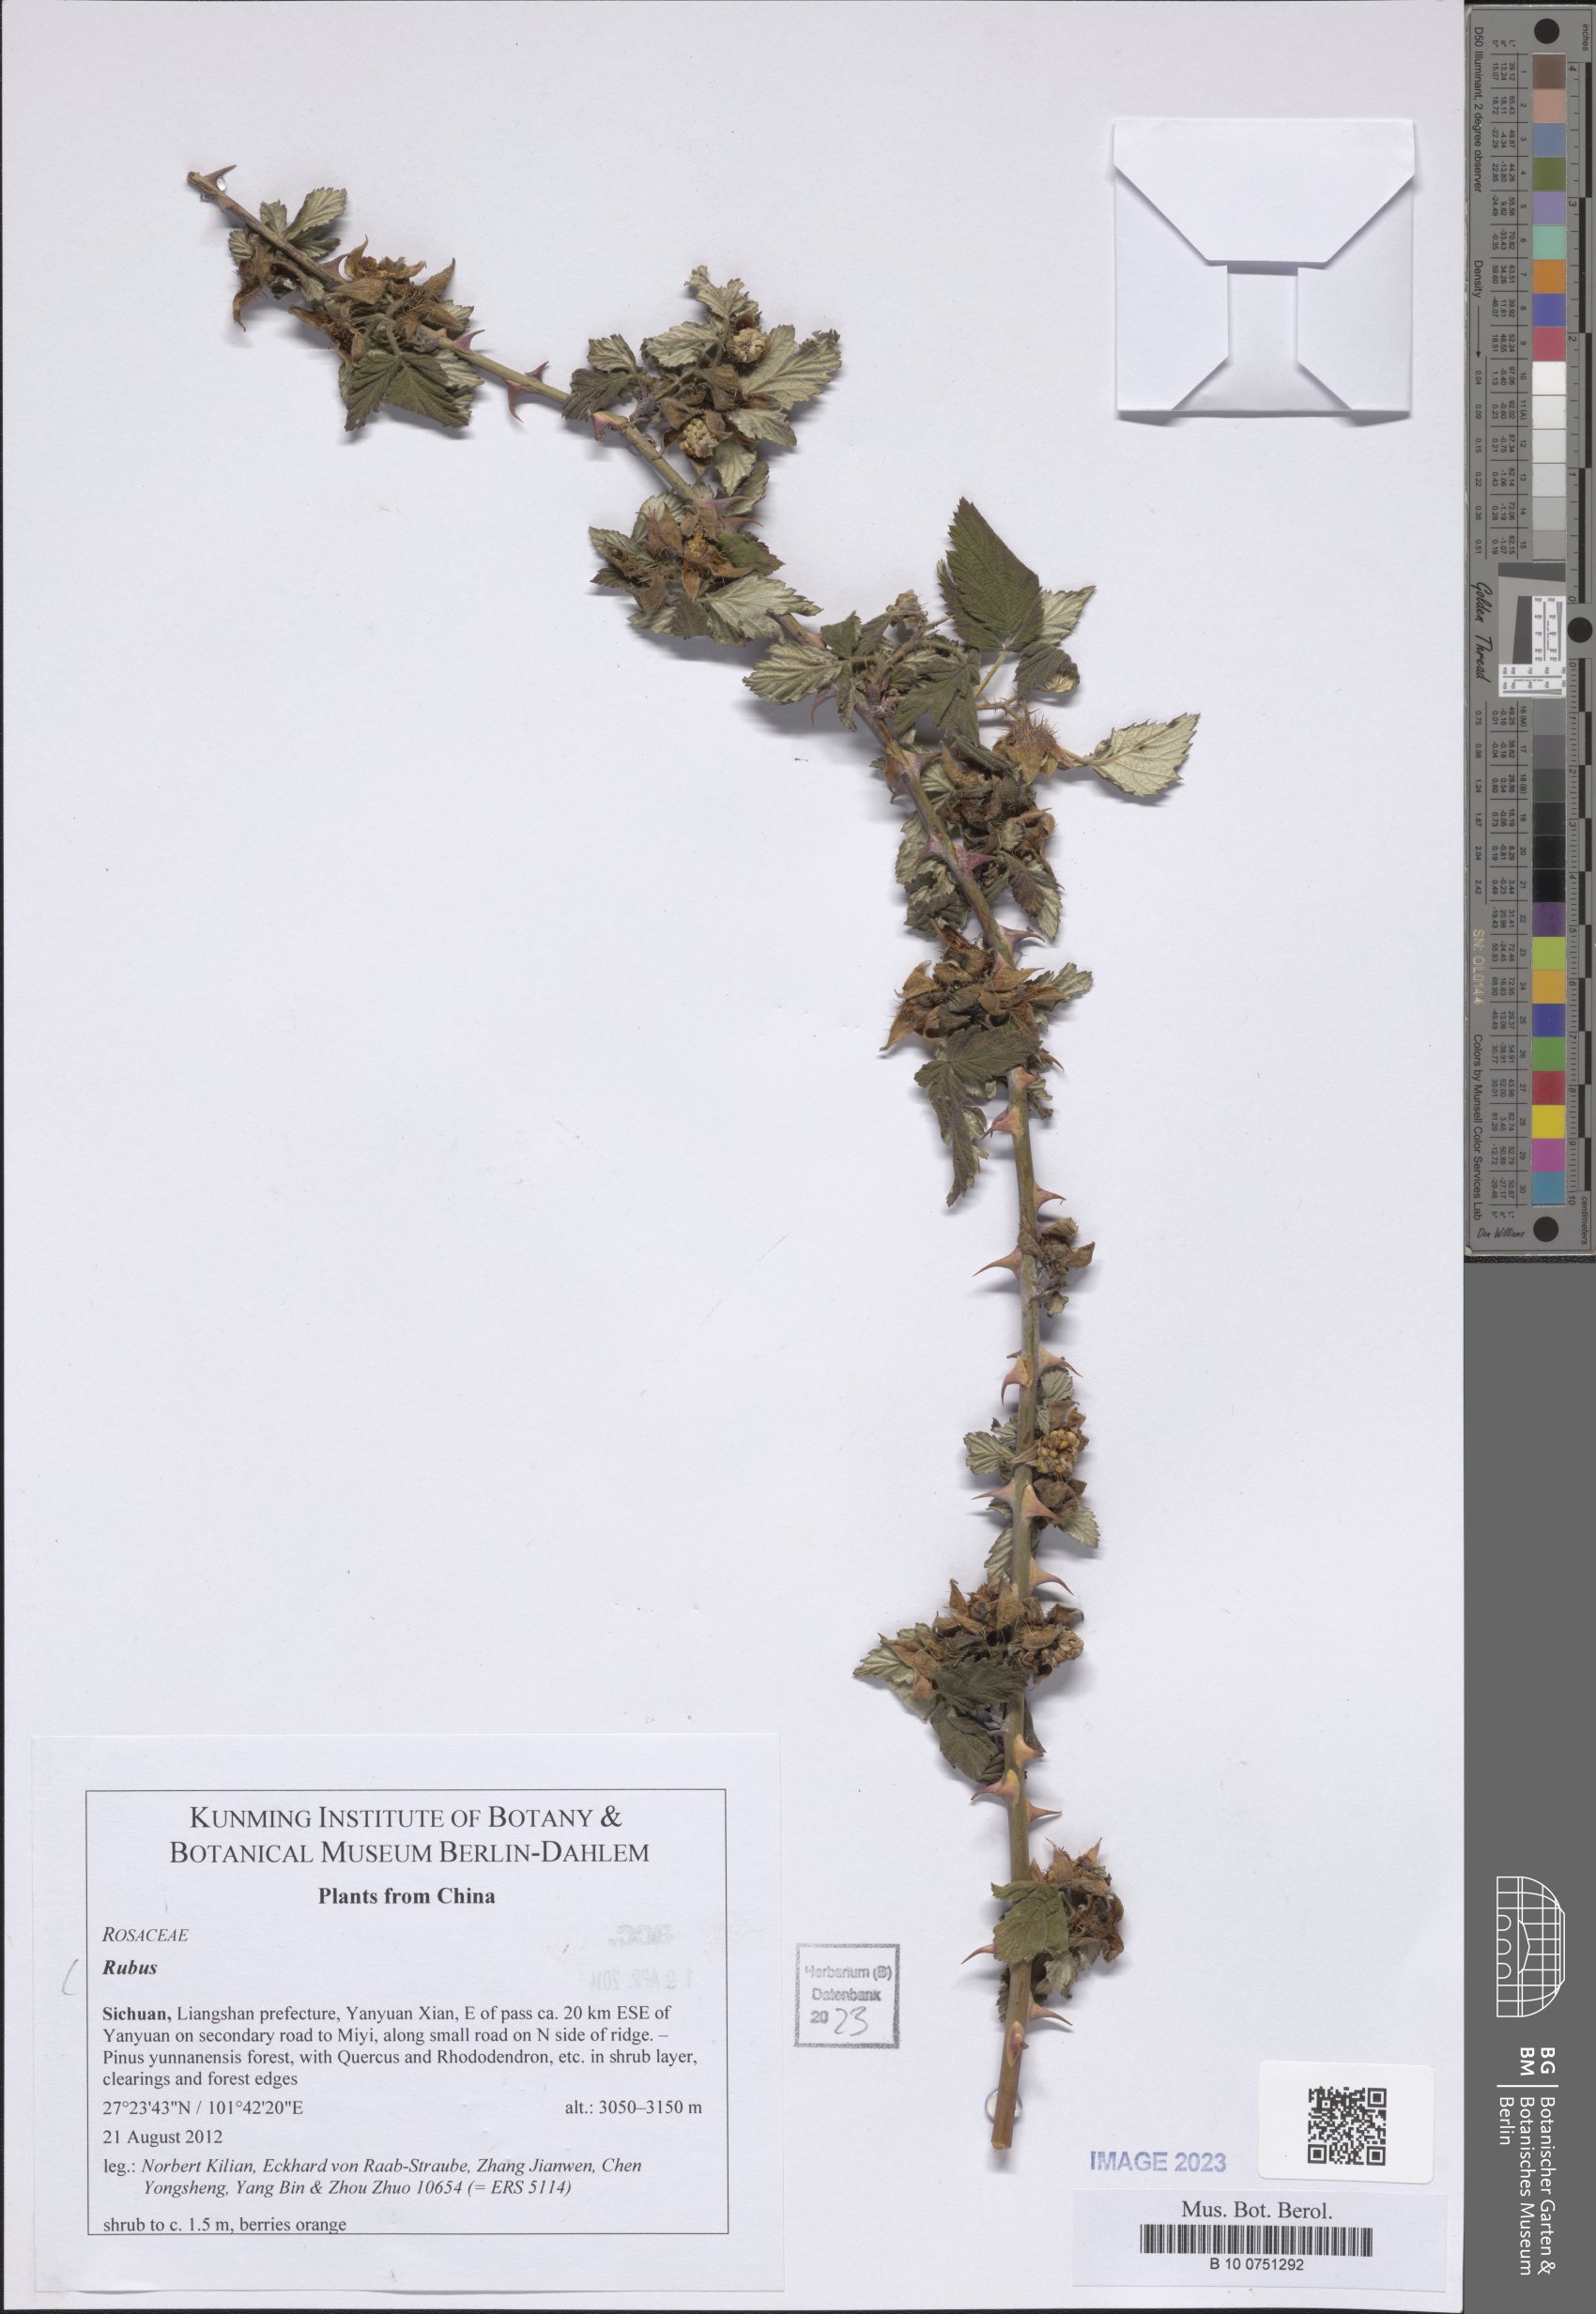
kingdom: Plantae
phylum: Tracheophyta
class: Magnoliopsida
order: Rosales
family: Rosaceae
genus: Rubus
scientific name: Rubus
